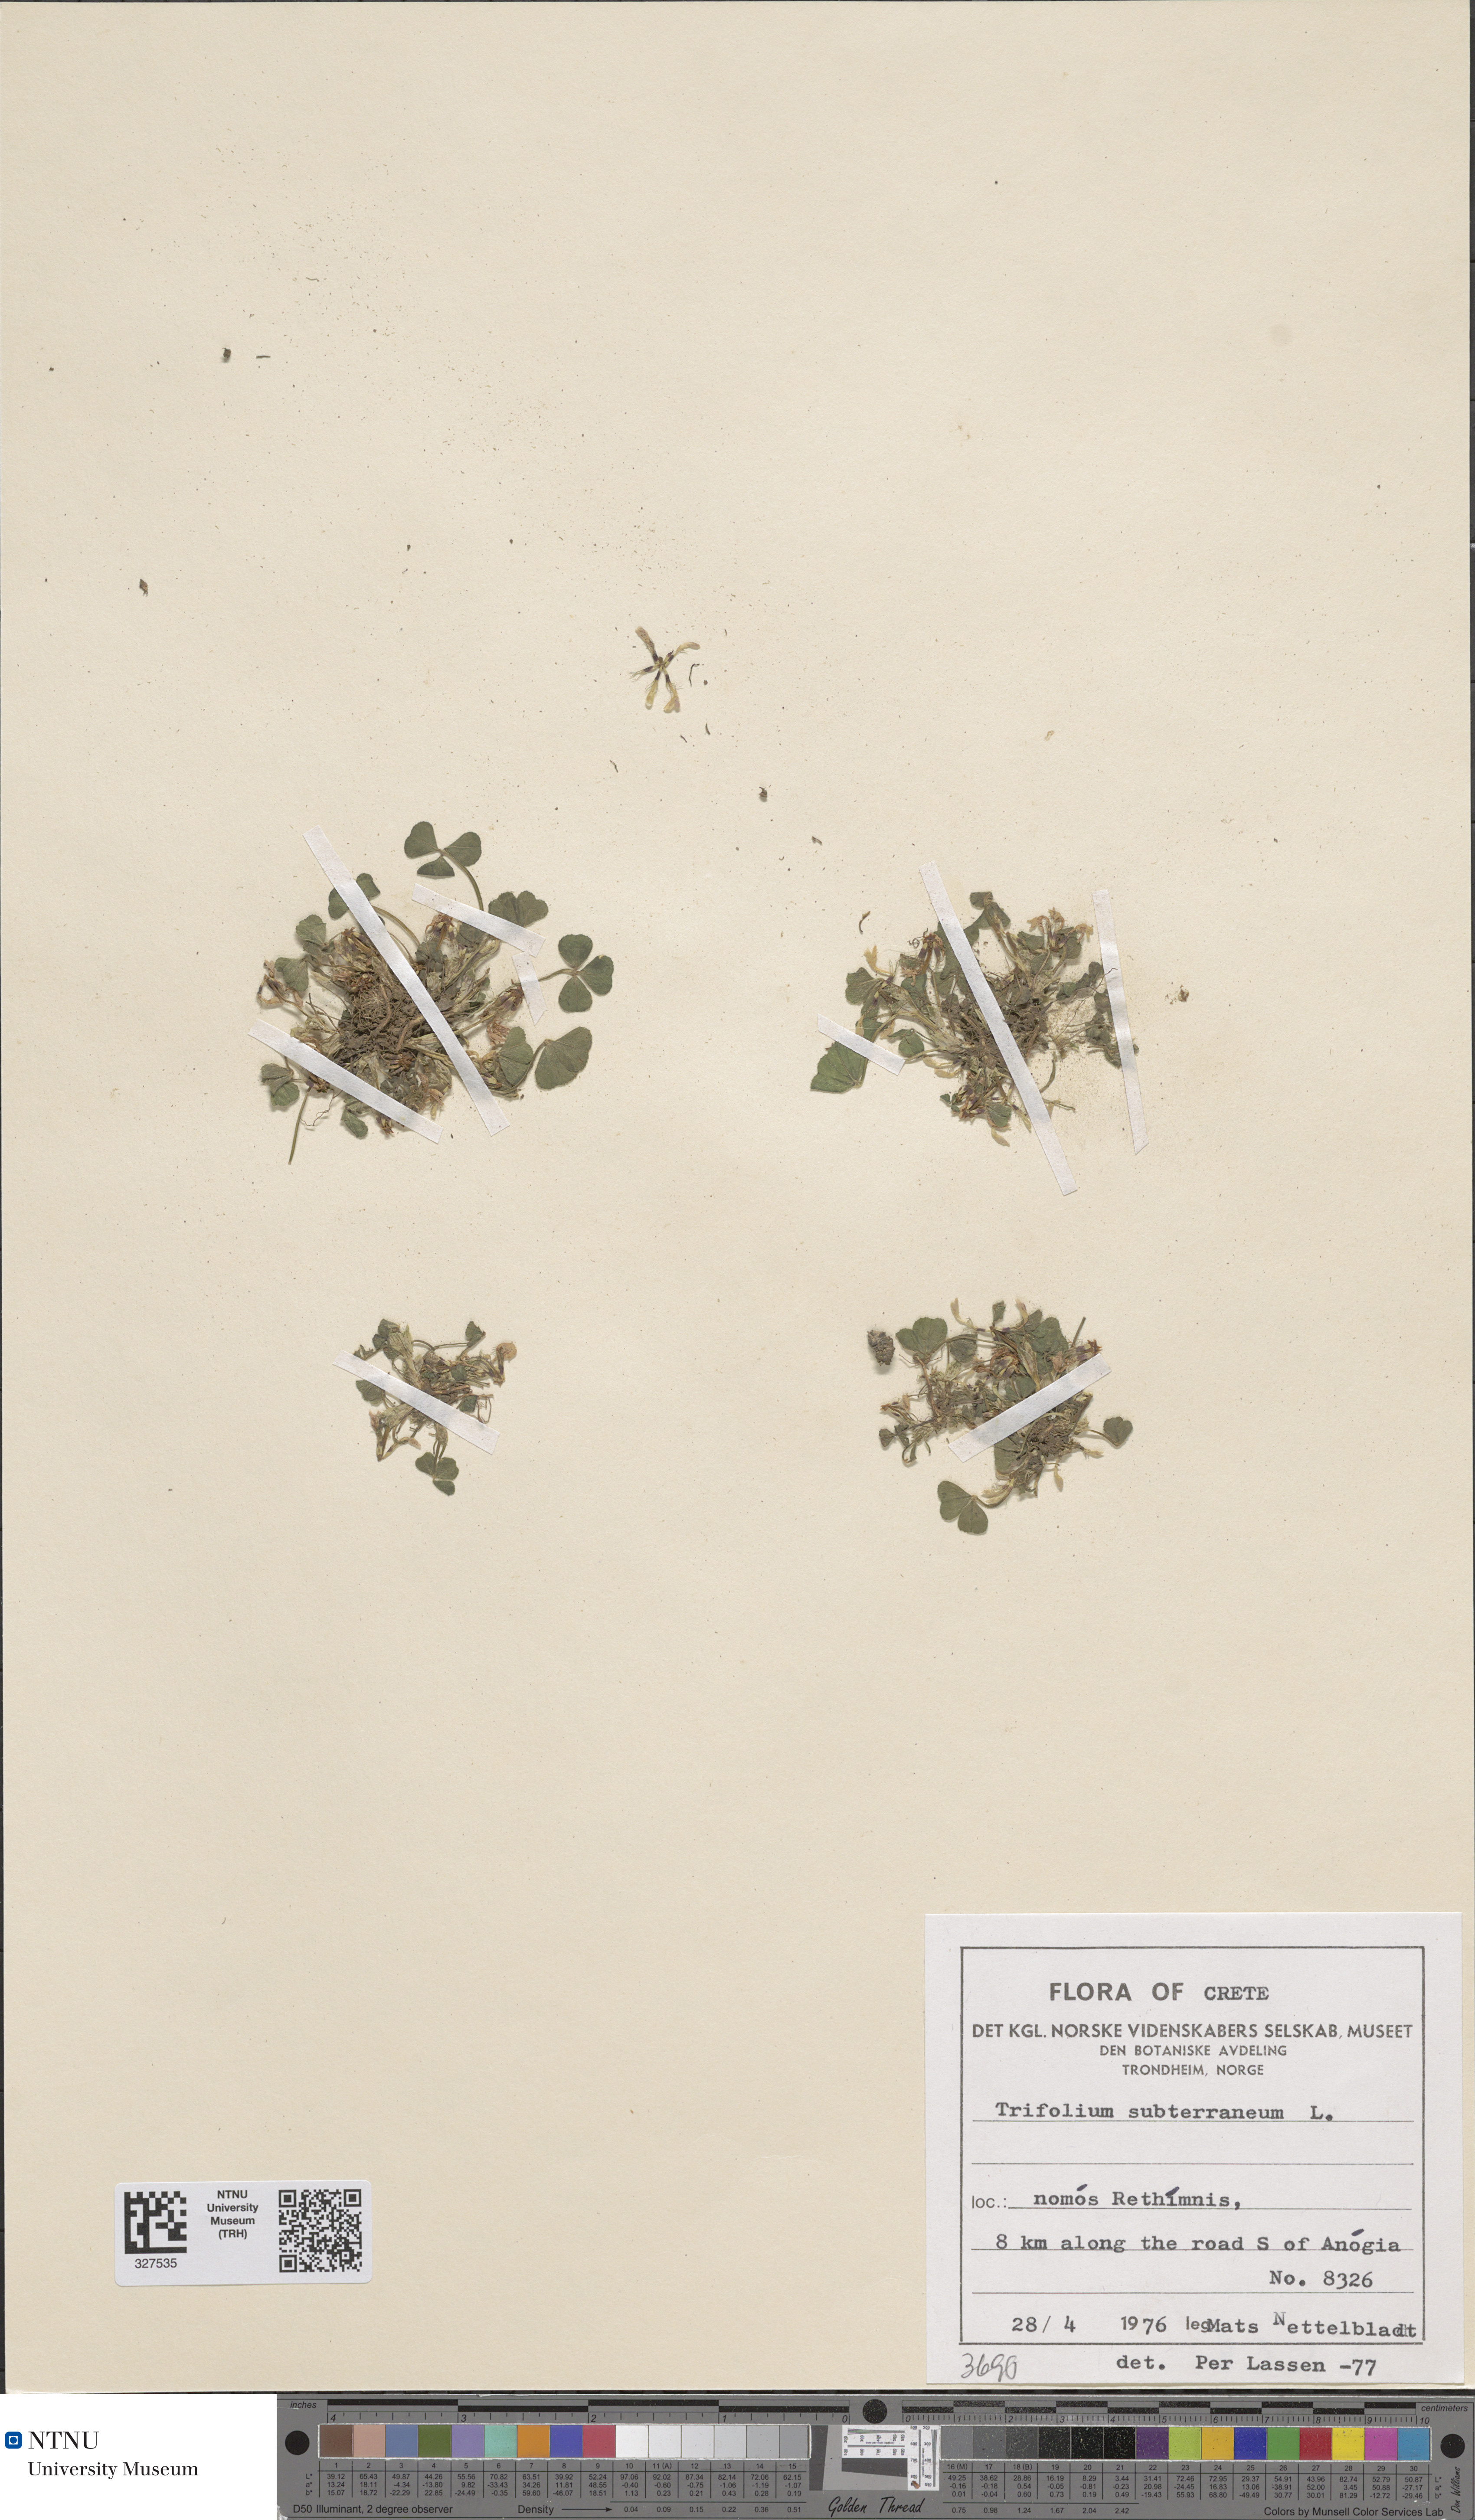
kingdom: Plantae
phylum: Tracheophyta
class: Magnoliopsida
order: Fabales
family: Fabaceae
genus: Trifolium
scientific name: Trifolium subterraneum
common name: Subterranean clover
